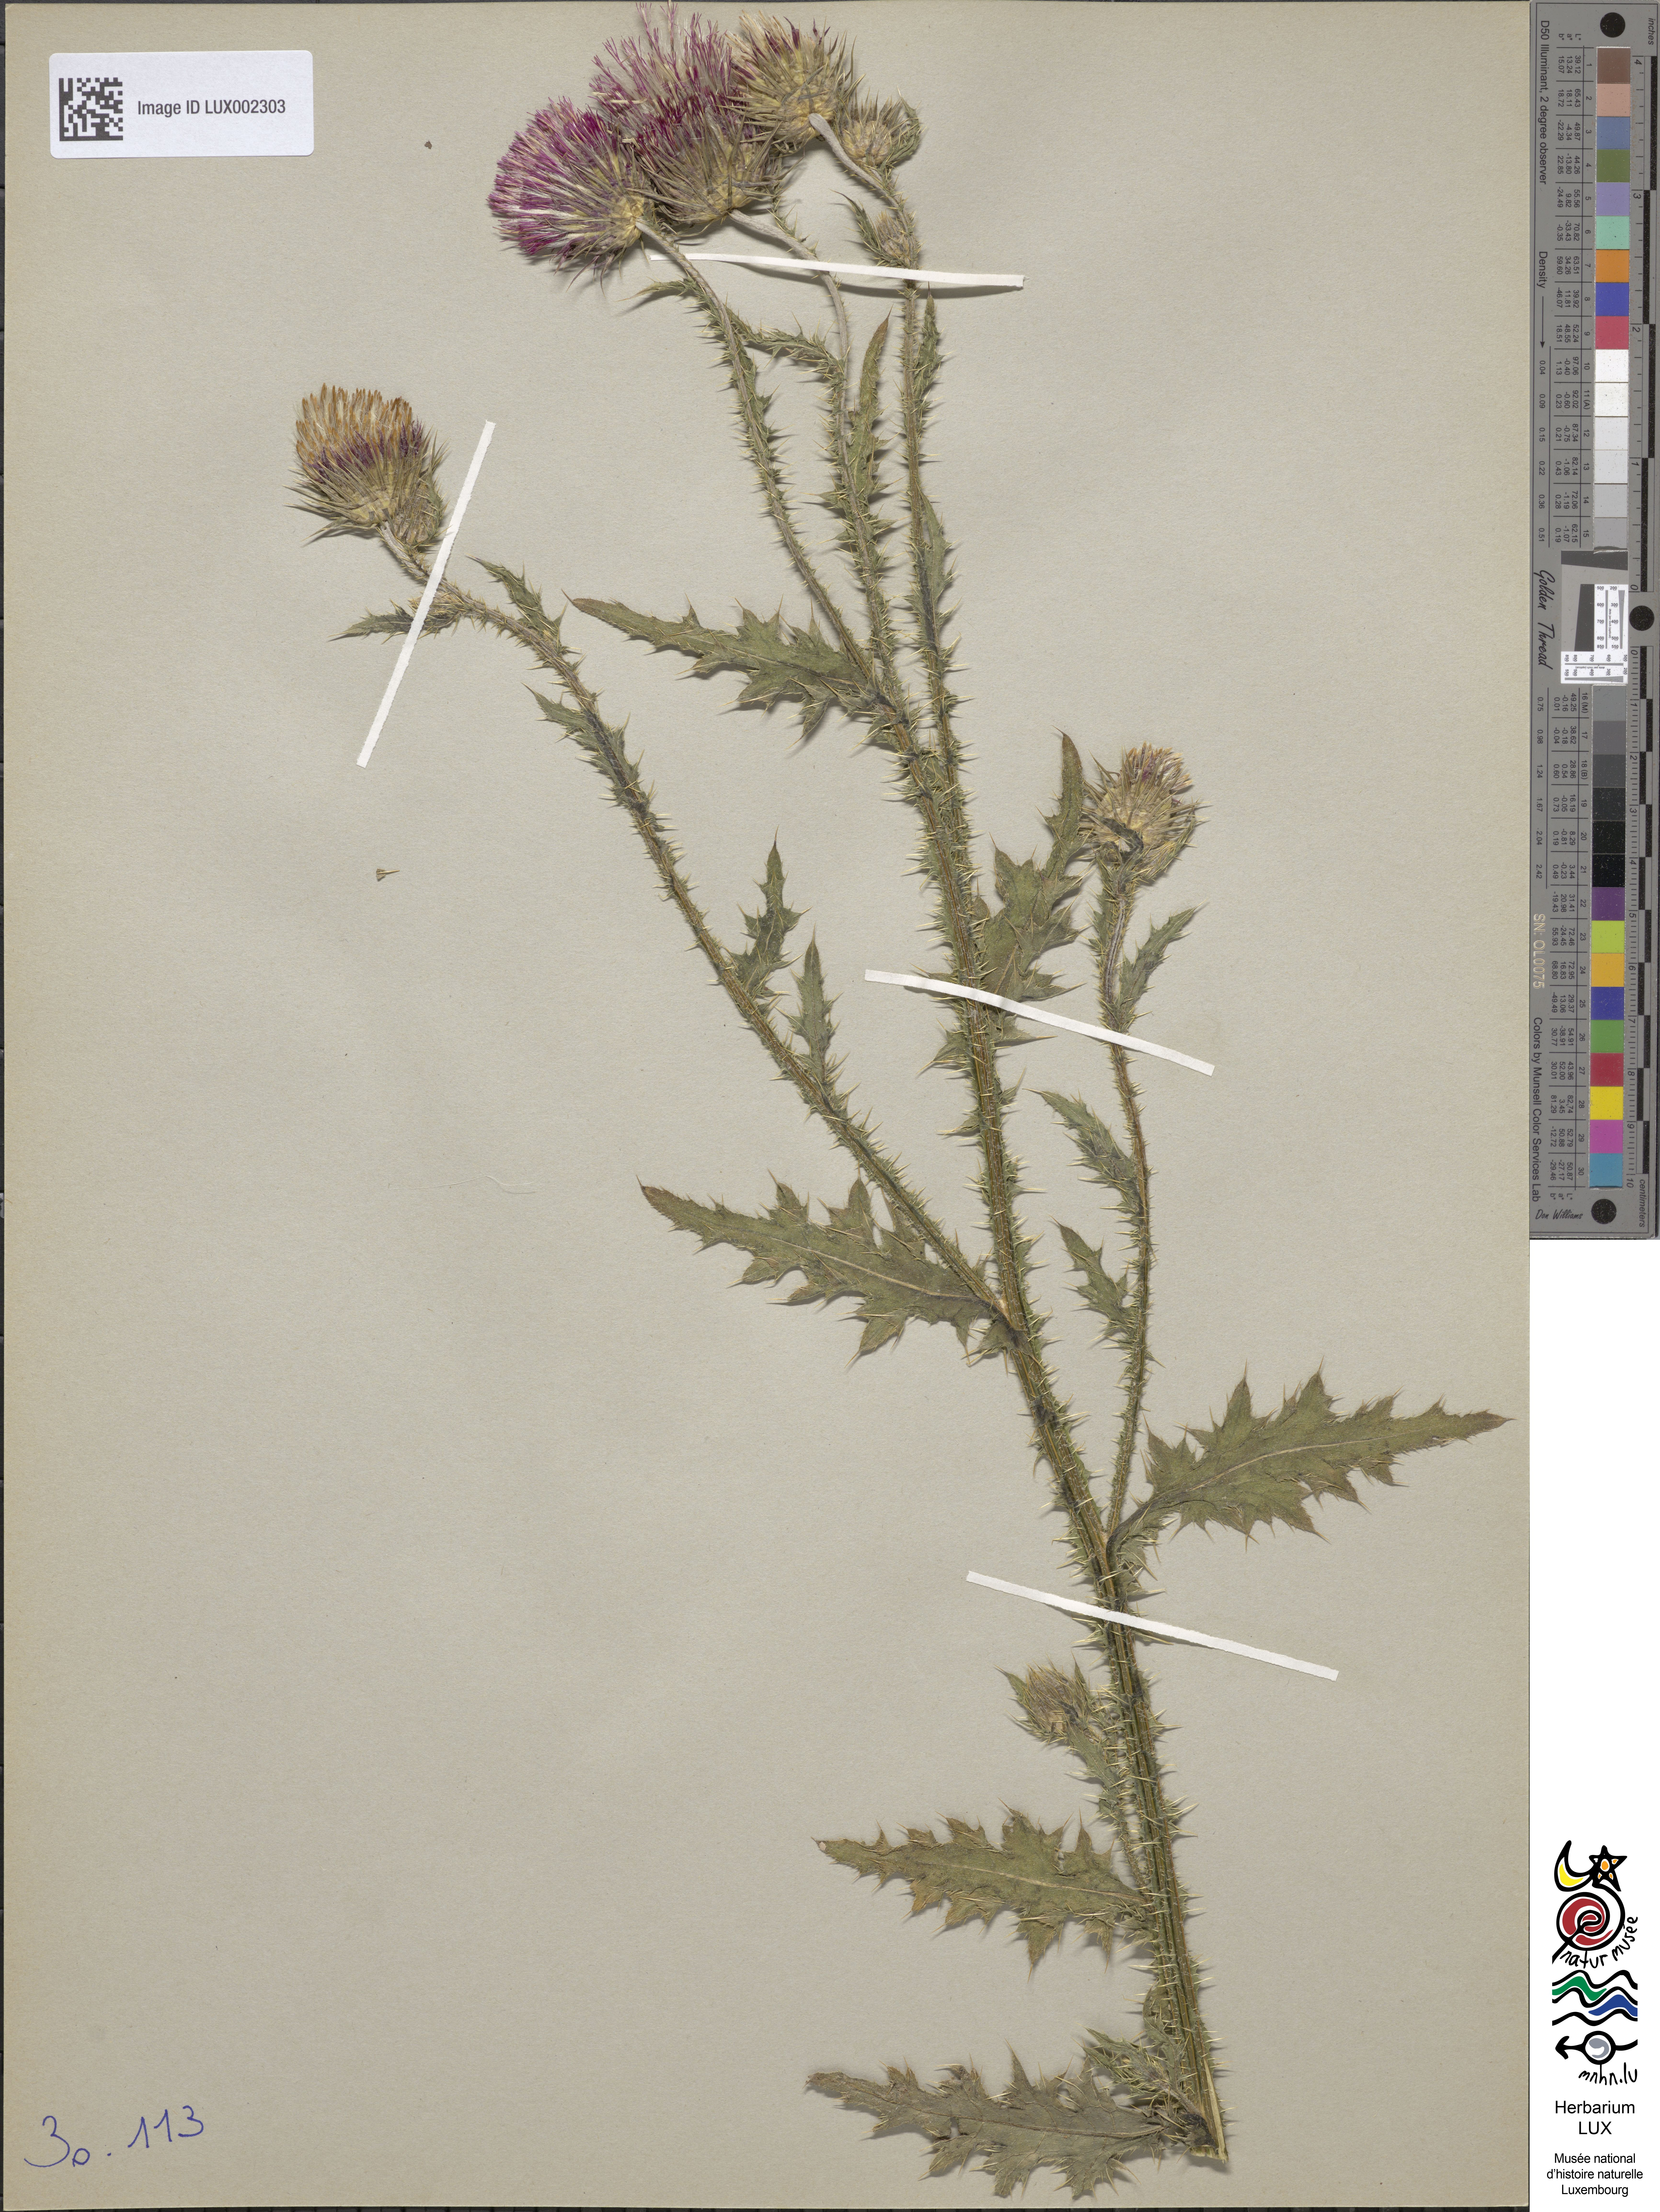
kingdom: Animalia
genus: Carduus
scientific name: Carduus
